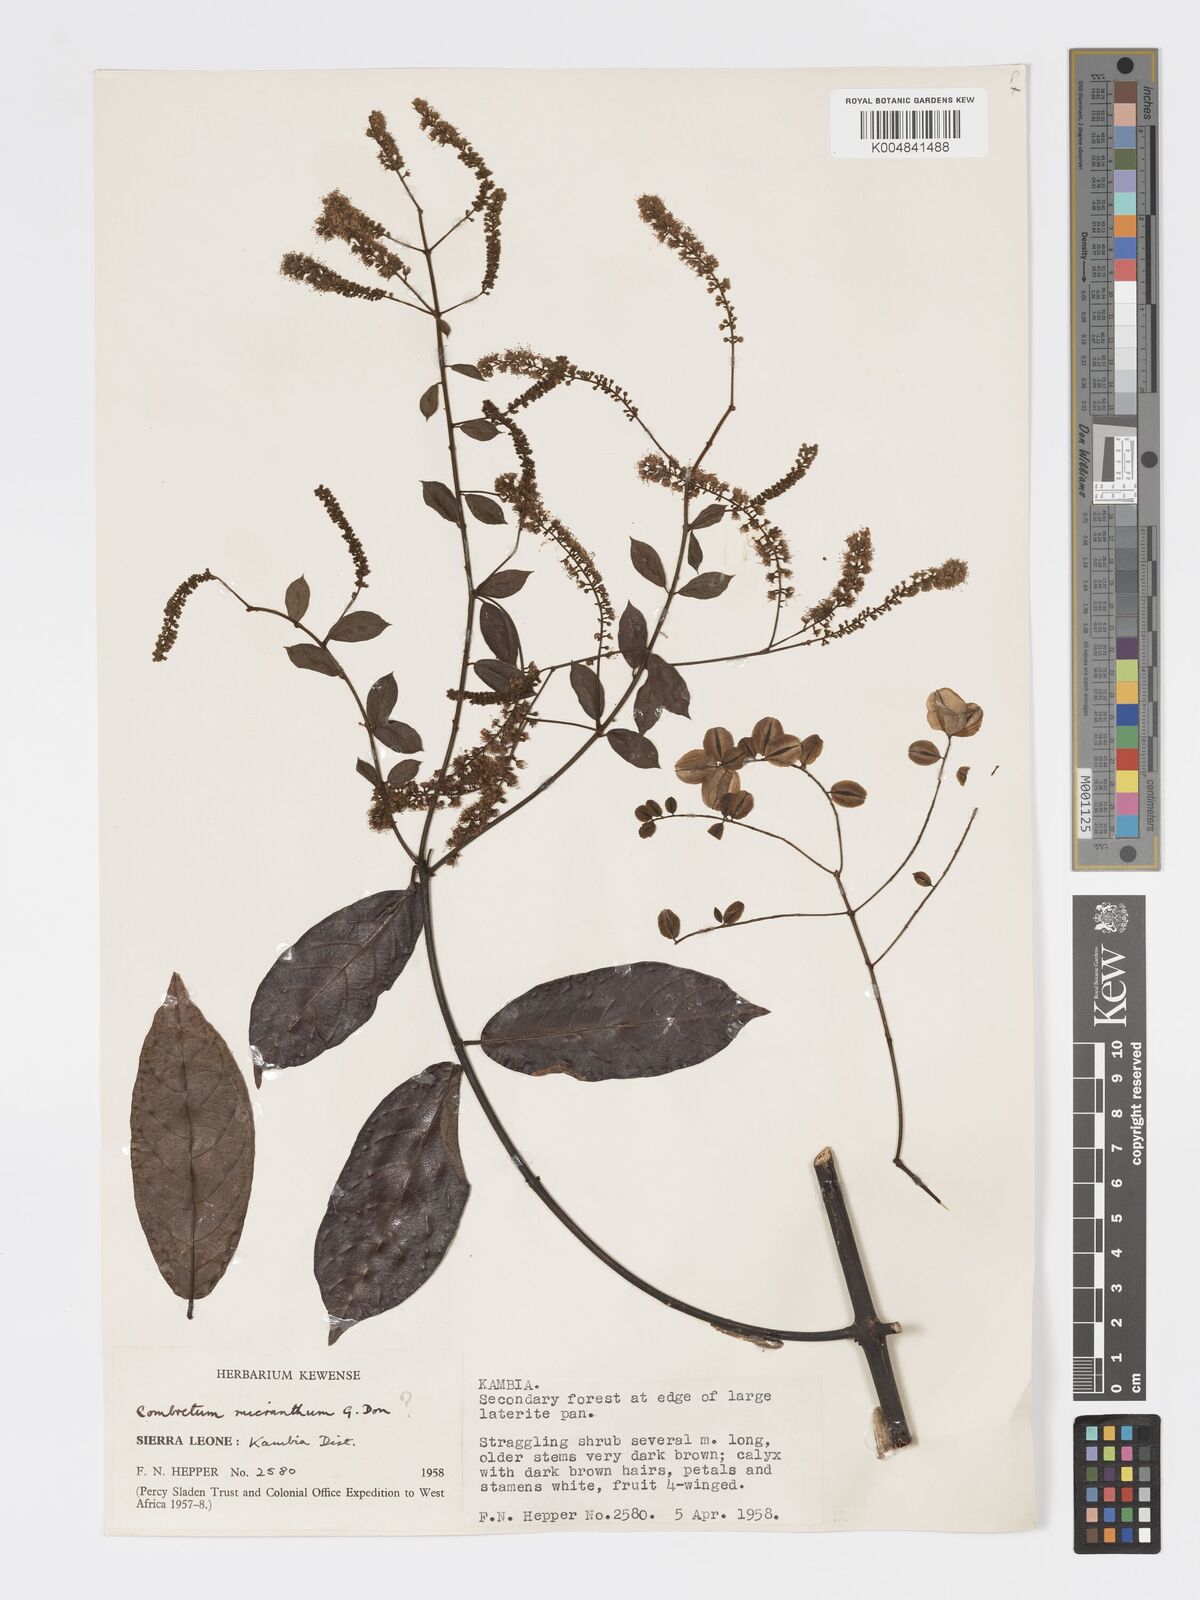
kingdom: Plantae
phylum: Tracheophyta
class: Magnoliopsida
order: Myrtales
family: Combretaceae
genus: Combretum
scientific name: Combretum mucronatum
